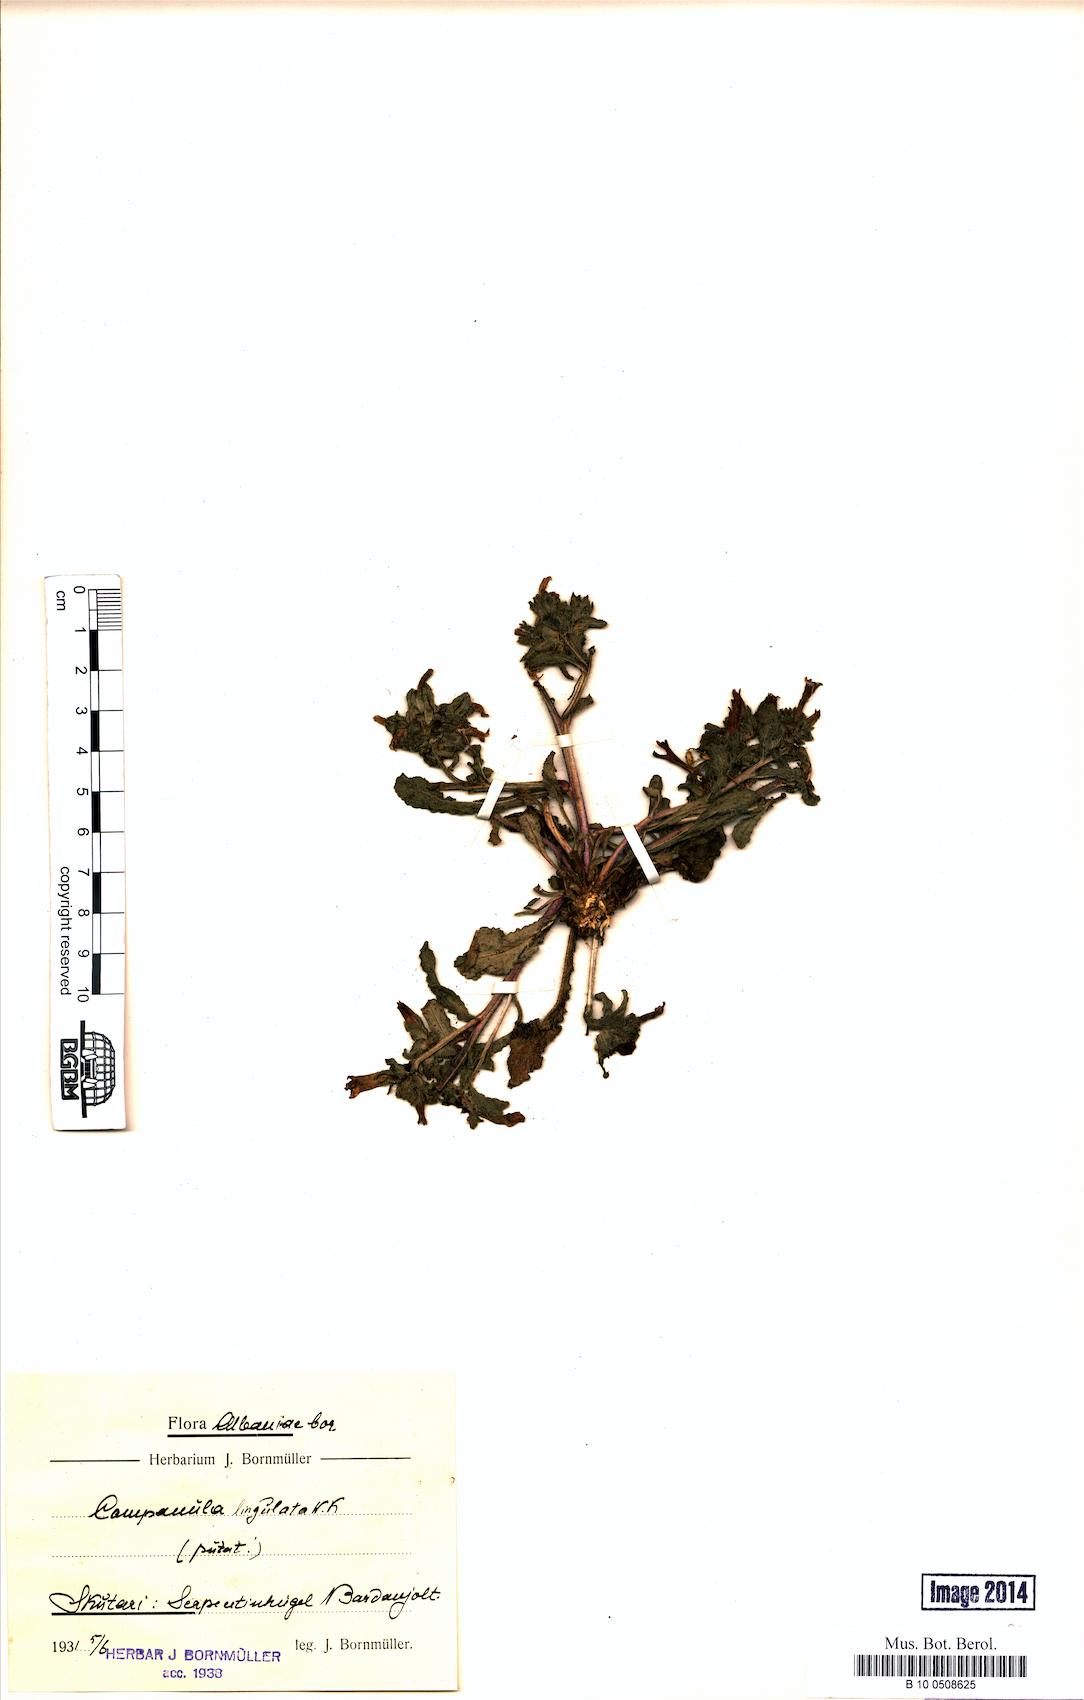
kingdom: Plantae
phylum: Tracheophyta
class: Magnoliopsida
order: Asterales
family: Campanulaceae
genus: Campanula
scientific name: Campanula lingulata
